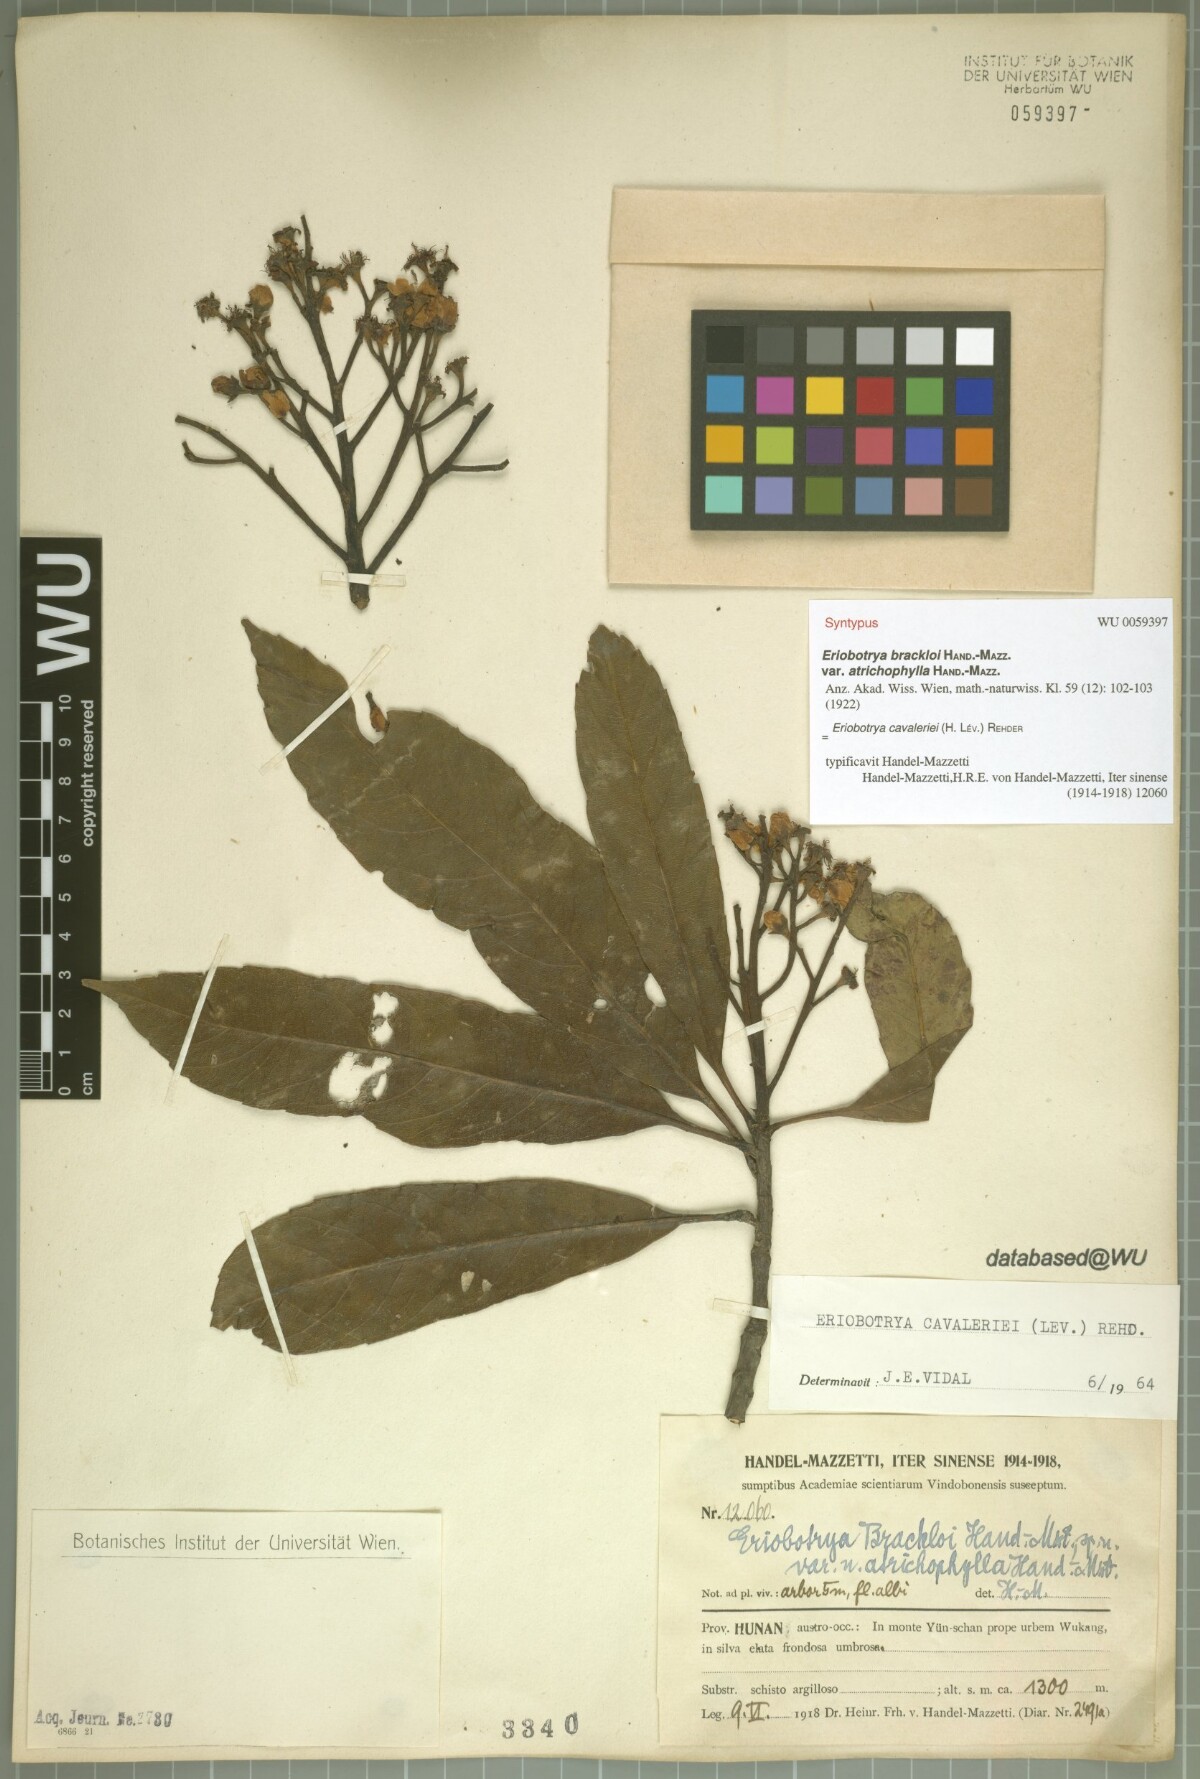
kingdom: Plantae
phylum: Tracheophyta
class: Magnoliopsida
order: Rosales
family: Rosaceae
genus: Rhaphiolepis
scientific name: Rhaphiolepis cavaleriei
